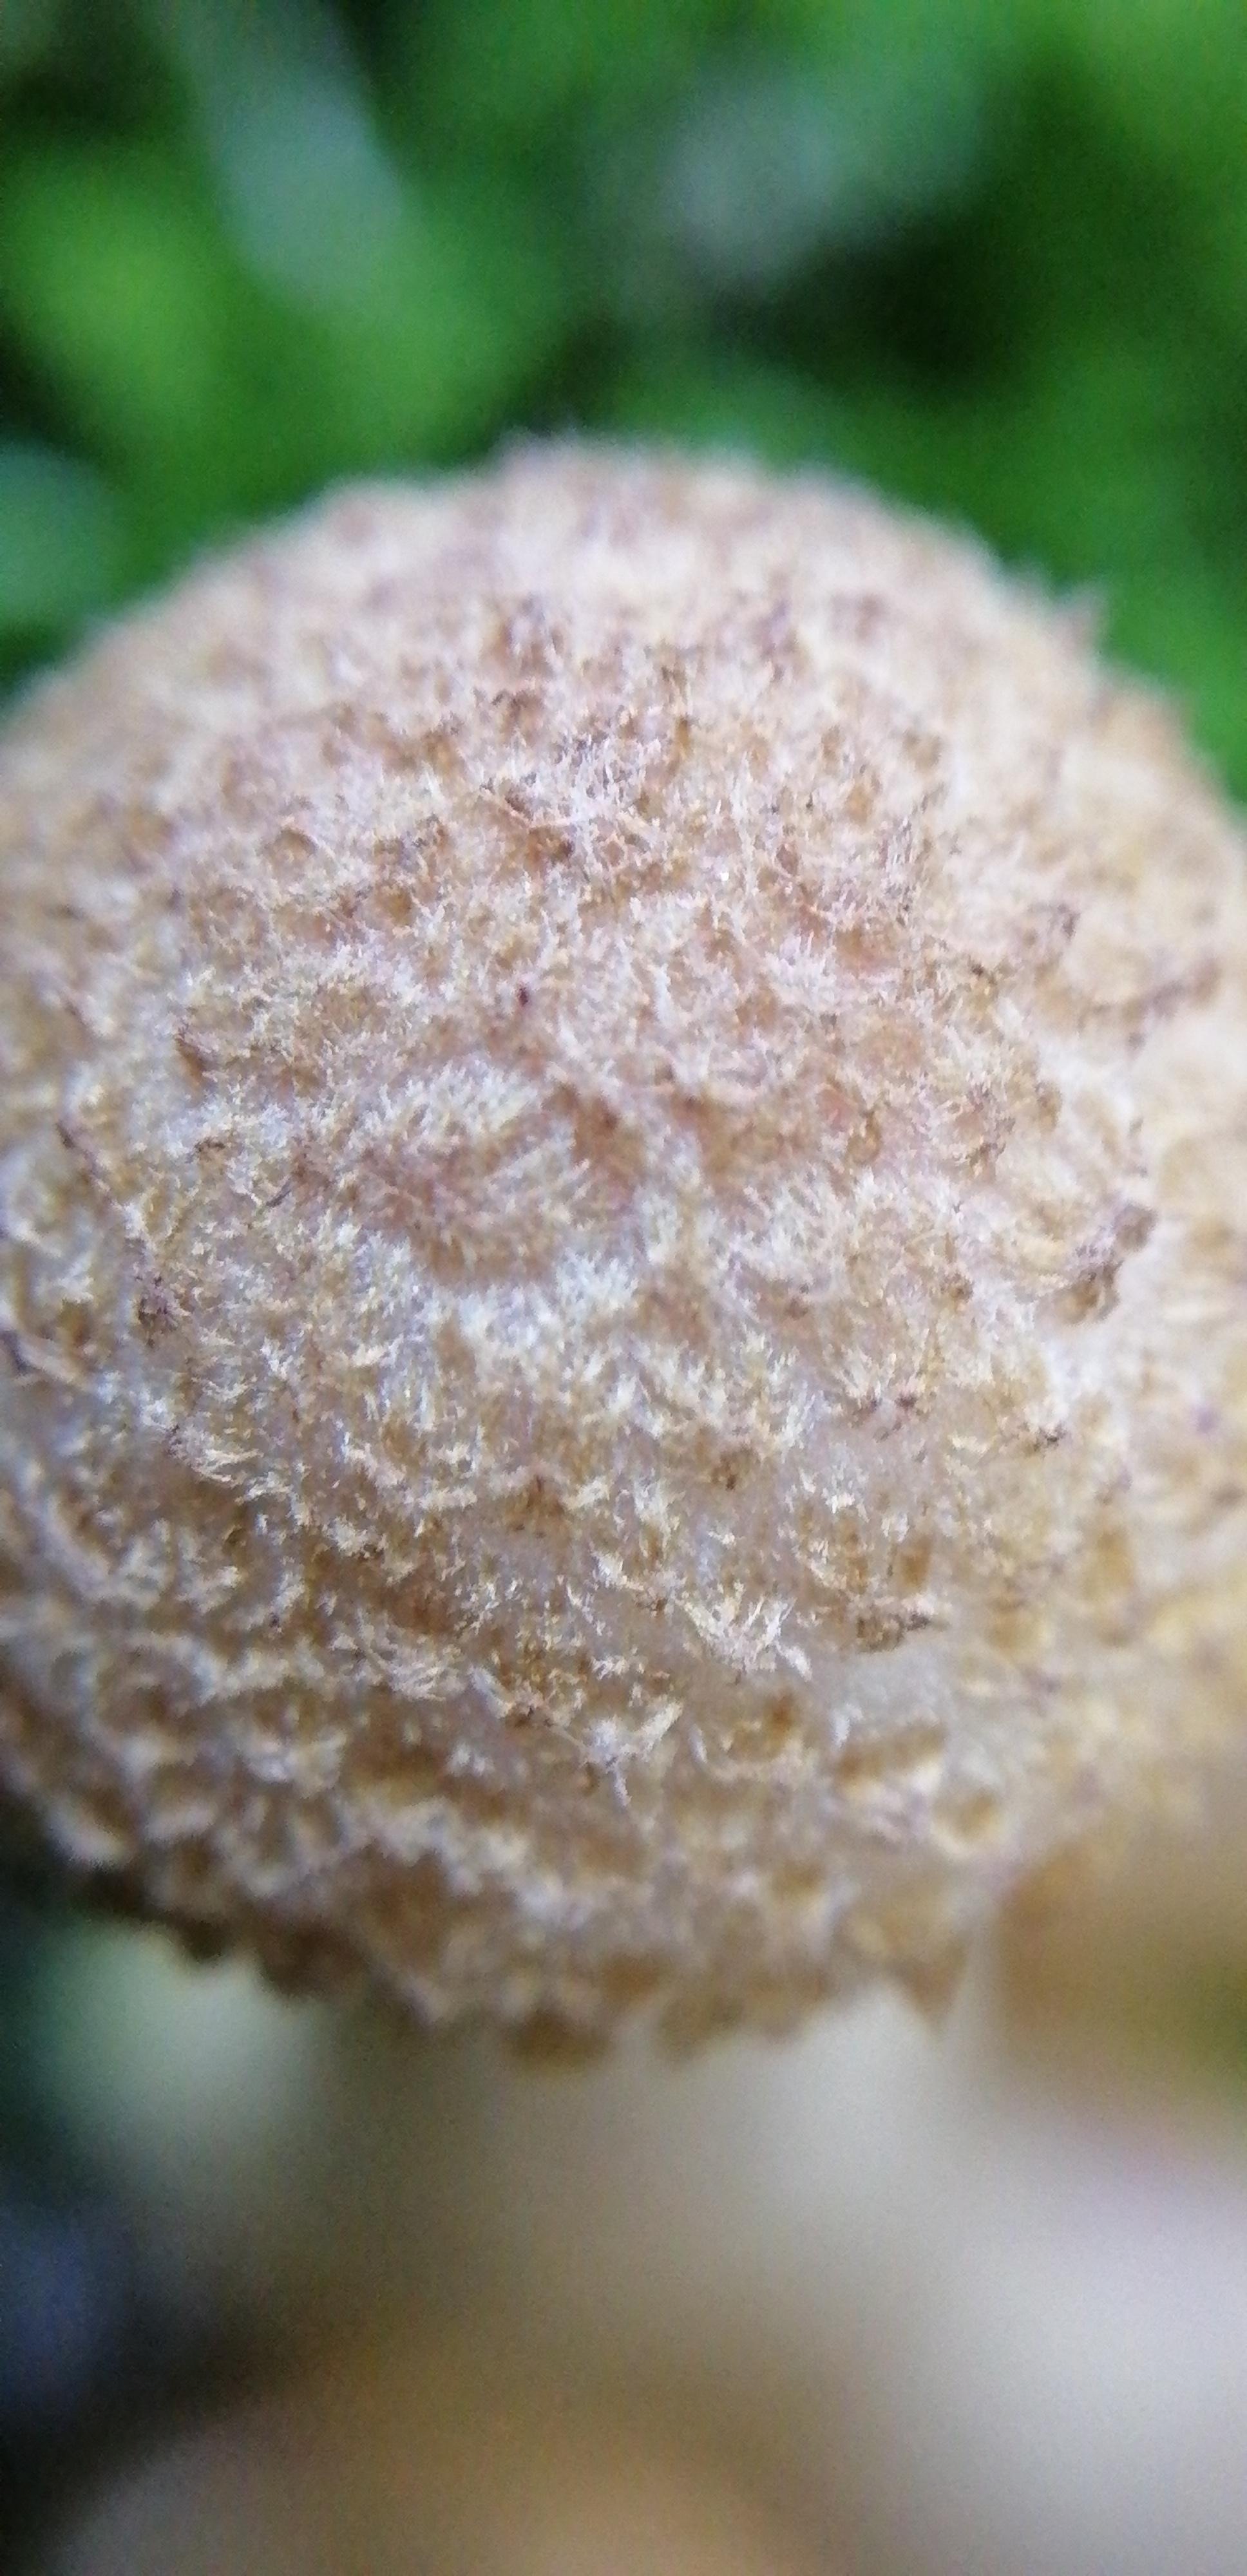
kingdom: Fungi
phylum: Basidiomycota
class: Agaricomycetes
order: Agaricales
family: Physalacriaceae
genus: Armillaria
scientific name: Armillaria
